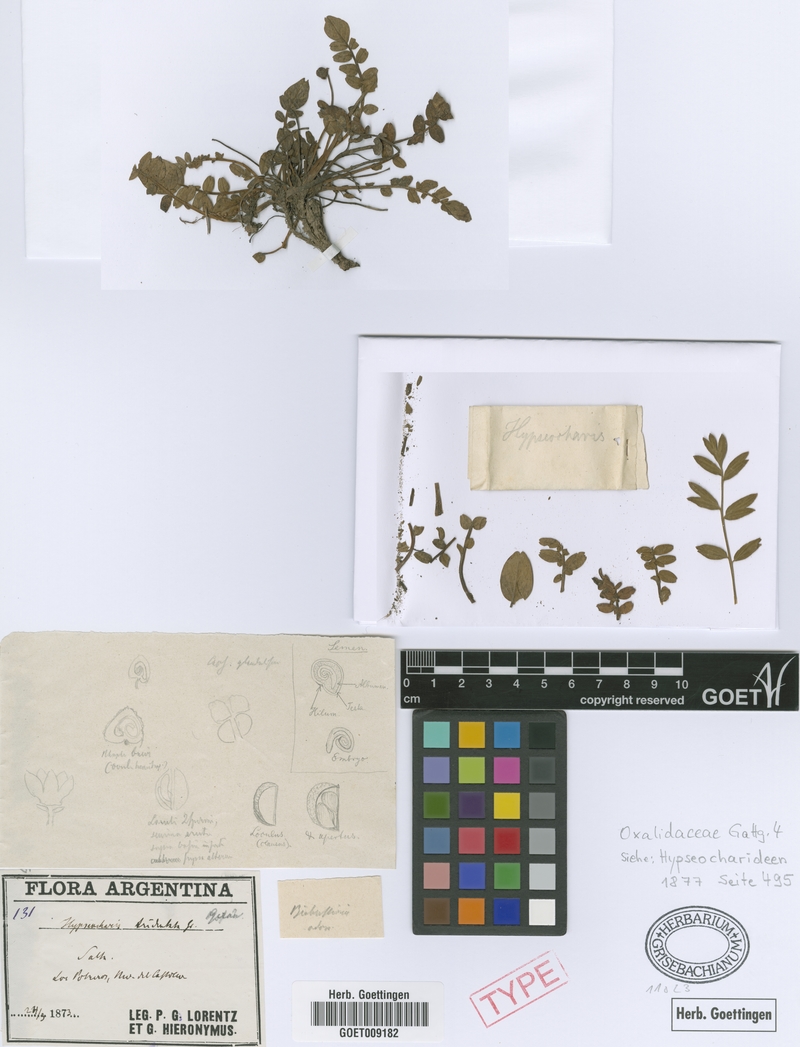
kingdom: Plantae
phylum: Tracheophyta
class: Magnoliopsida
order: Geraniales
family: Hypseocharitaceae
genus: Hypseocharis
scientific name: Hypseocharis tridentata
